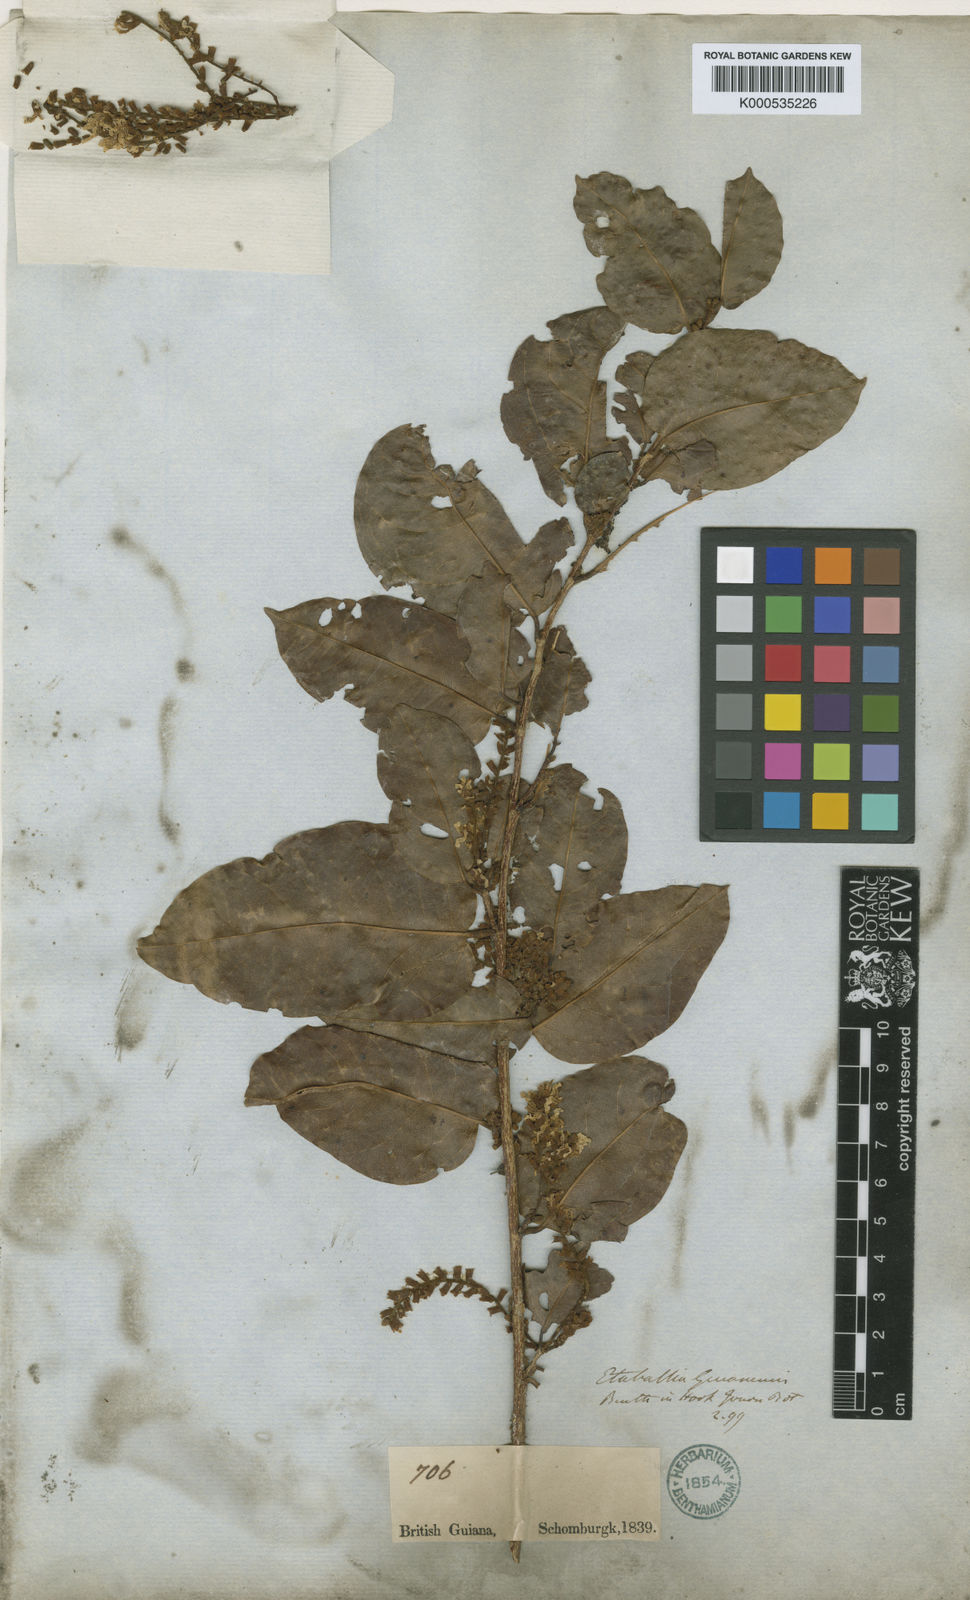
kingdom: Plantae
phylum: Tracheophyta
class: Magnoliopsida
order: Fabales
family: Fabaceae
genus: Pterocarpus
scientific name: Pterocarpus dubius
